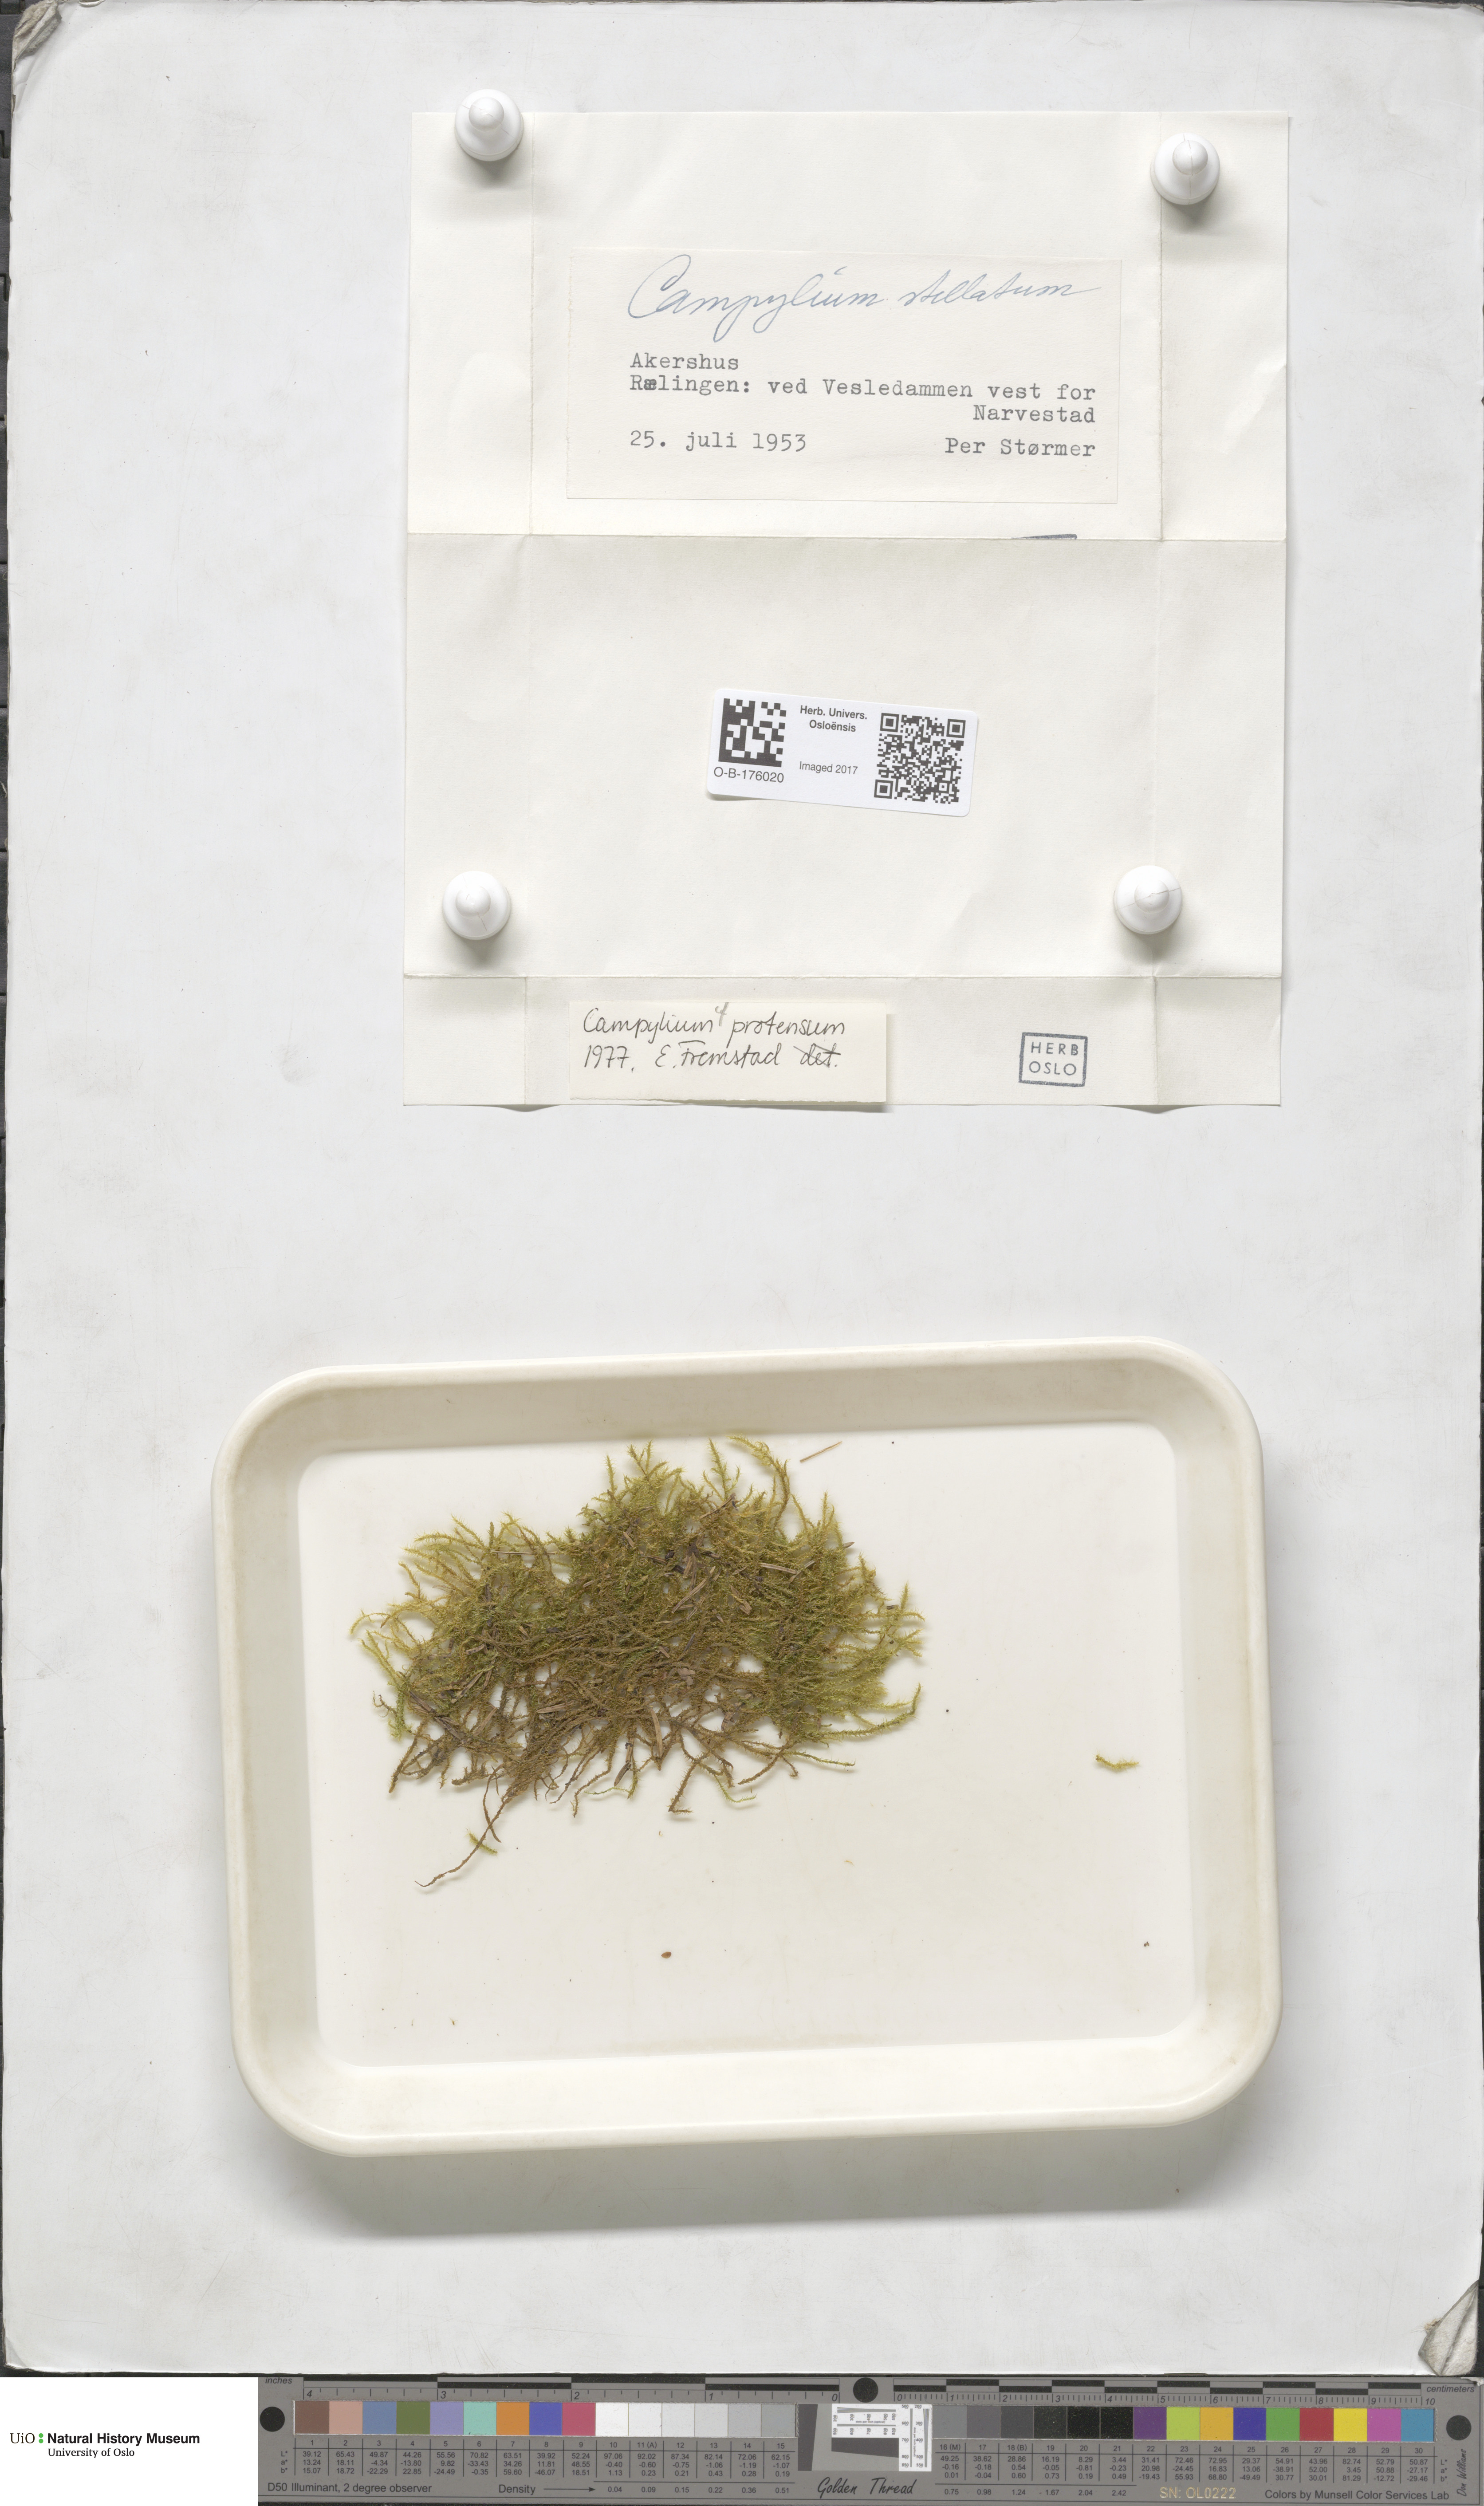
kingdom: Plantae
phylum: Bryophyta
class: Bryopsida
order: Hypnales
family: Amblystegiaceae
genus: Campylium
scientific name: Campylium protensum
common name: Dull starry fen moss
